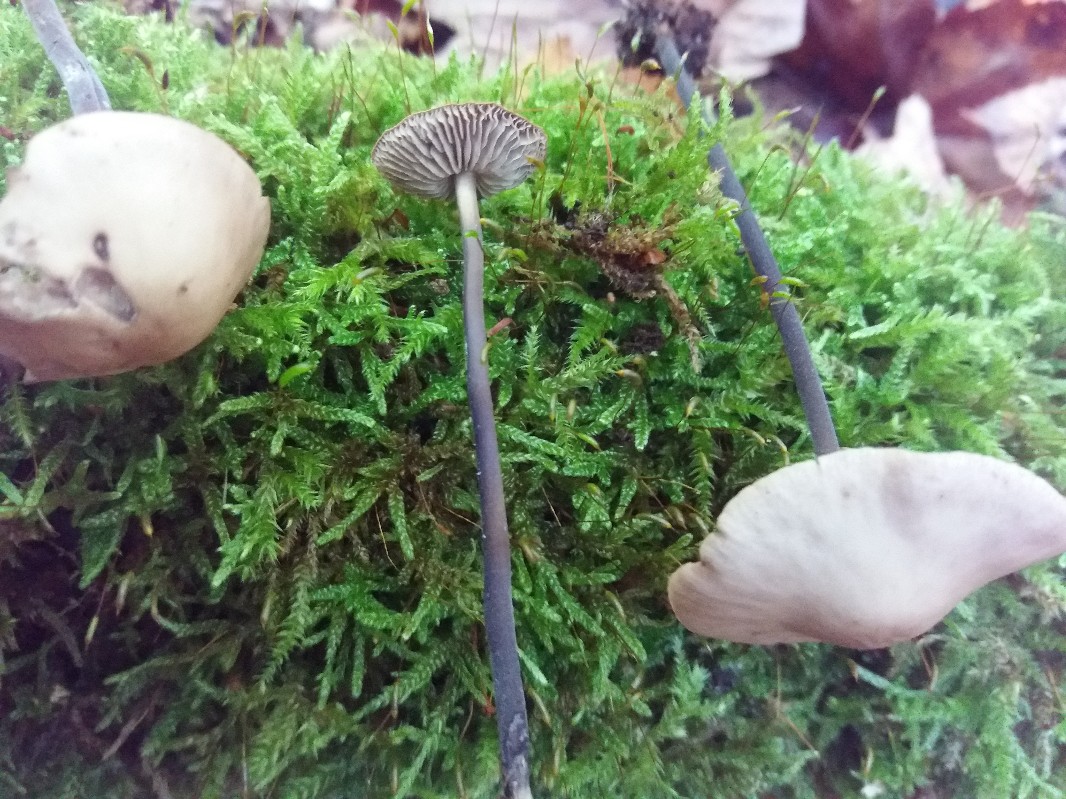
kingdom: Fungi
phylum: Basidiomycota
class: Agaricomycetes
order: Agaricales
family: Omphalotaceae
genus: Mycetinis
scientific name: Mycetinis alliaceus
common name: stor løghat
